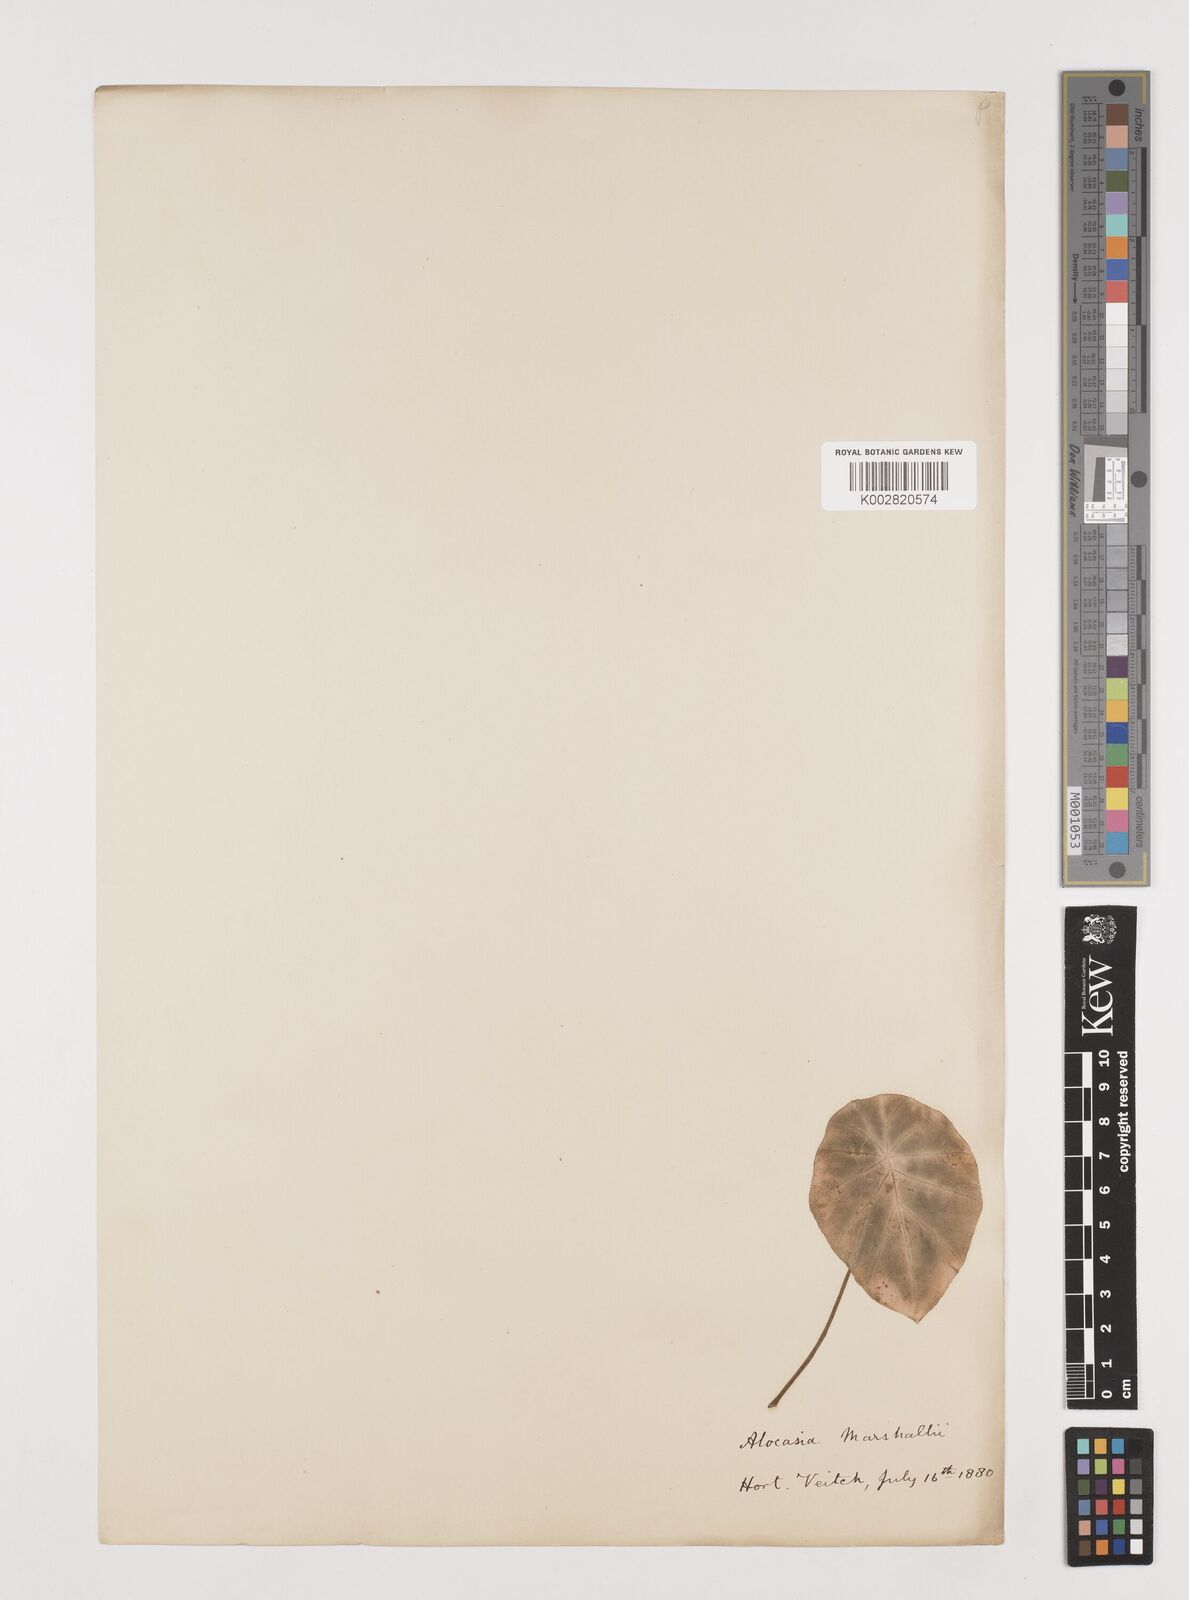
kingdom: Plantae
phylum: Tracheophyta
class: Liliopsida
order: Alismatales
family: Araceae
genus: Colocasia
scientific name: Colocasia affinis
